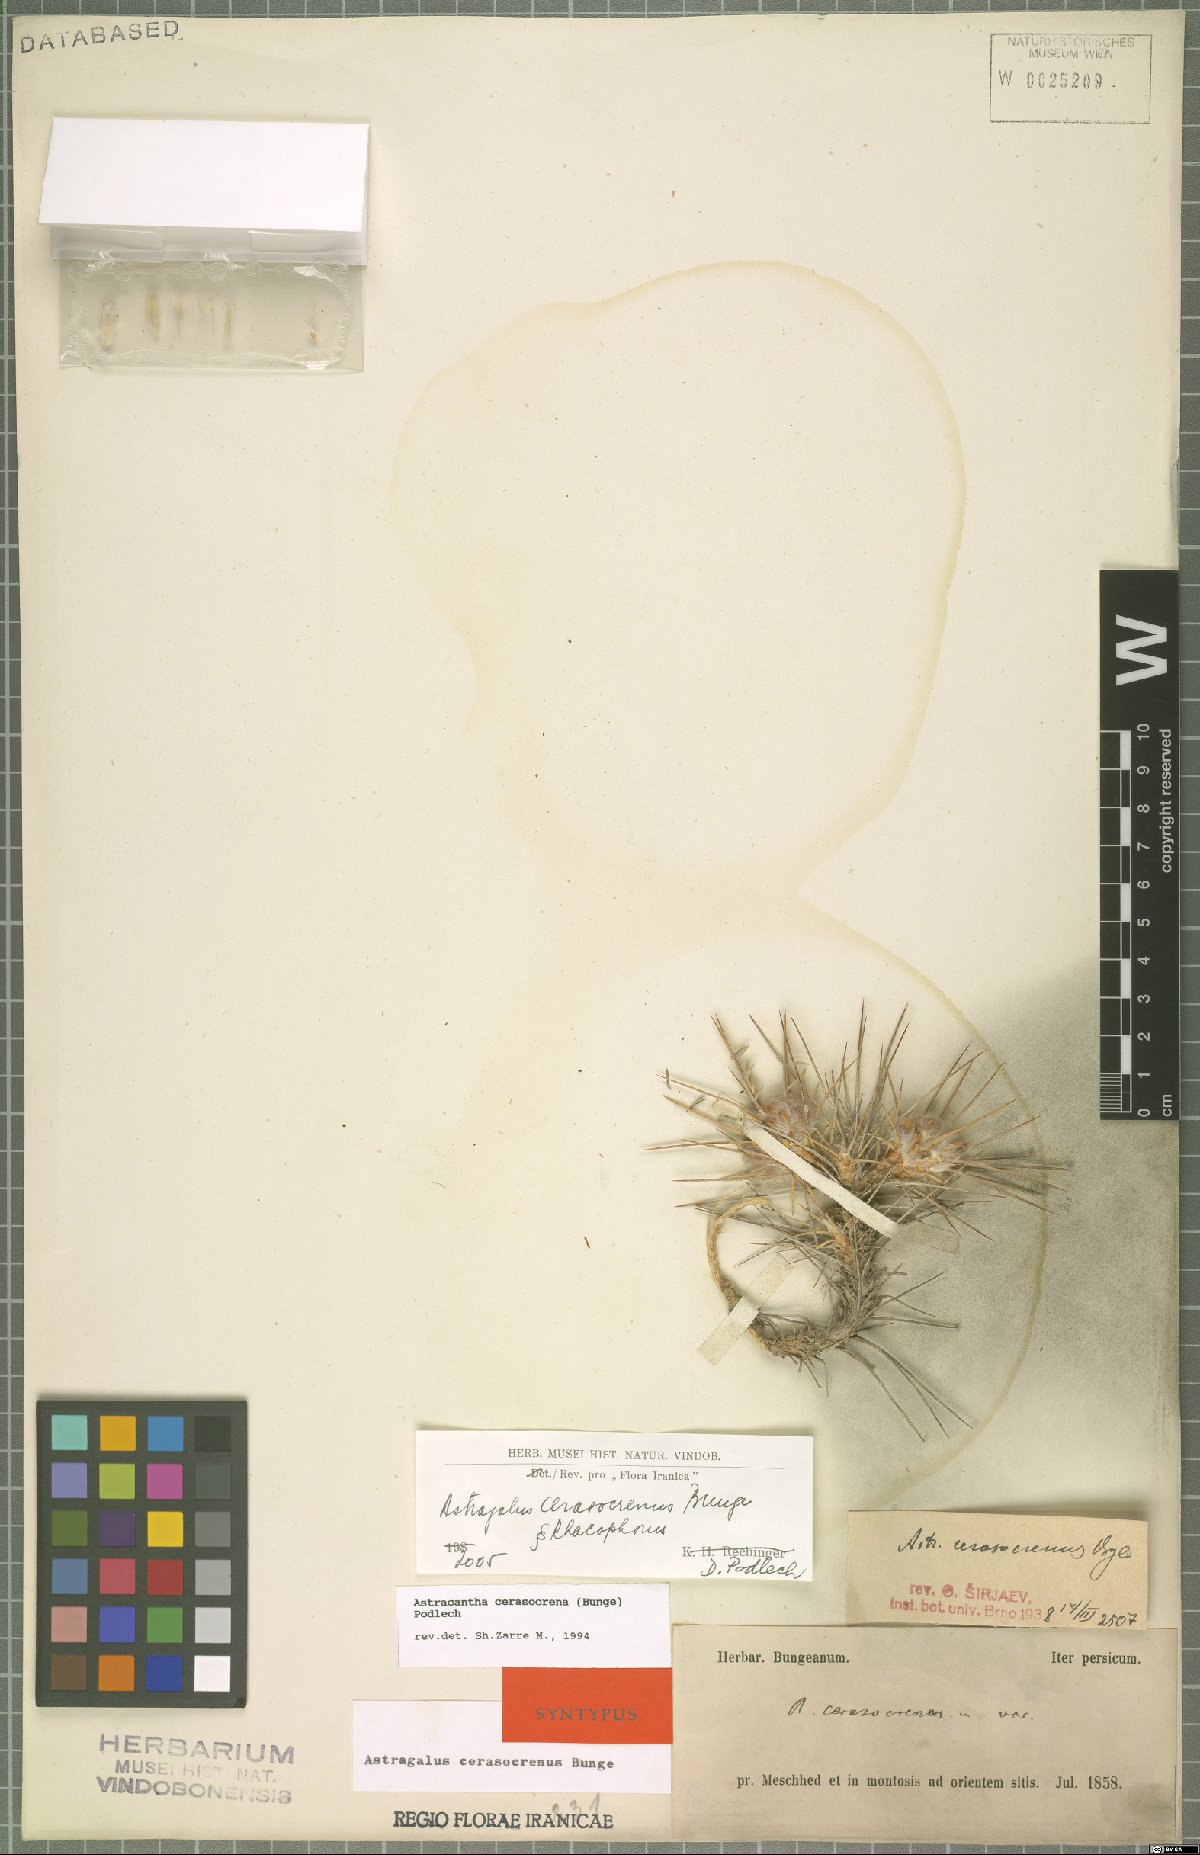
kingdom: Plantae
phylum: Tracheophyta
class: Magnoliopsida
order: Fabales
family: Fabaceae
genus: Astragalus
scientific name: Astragalus cerasocrenus
